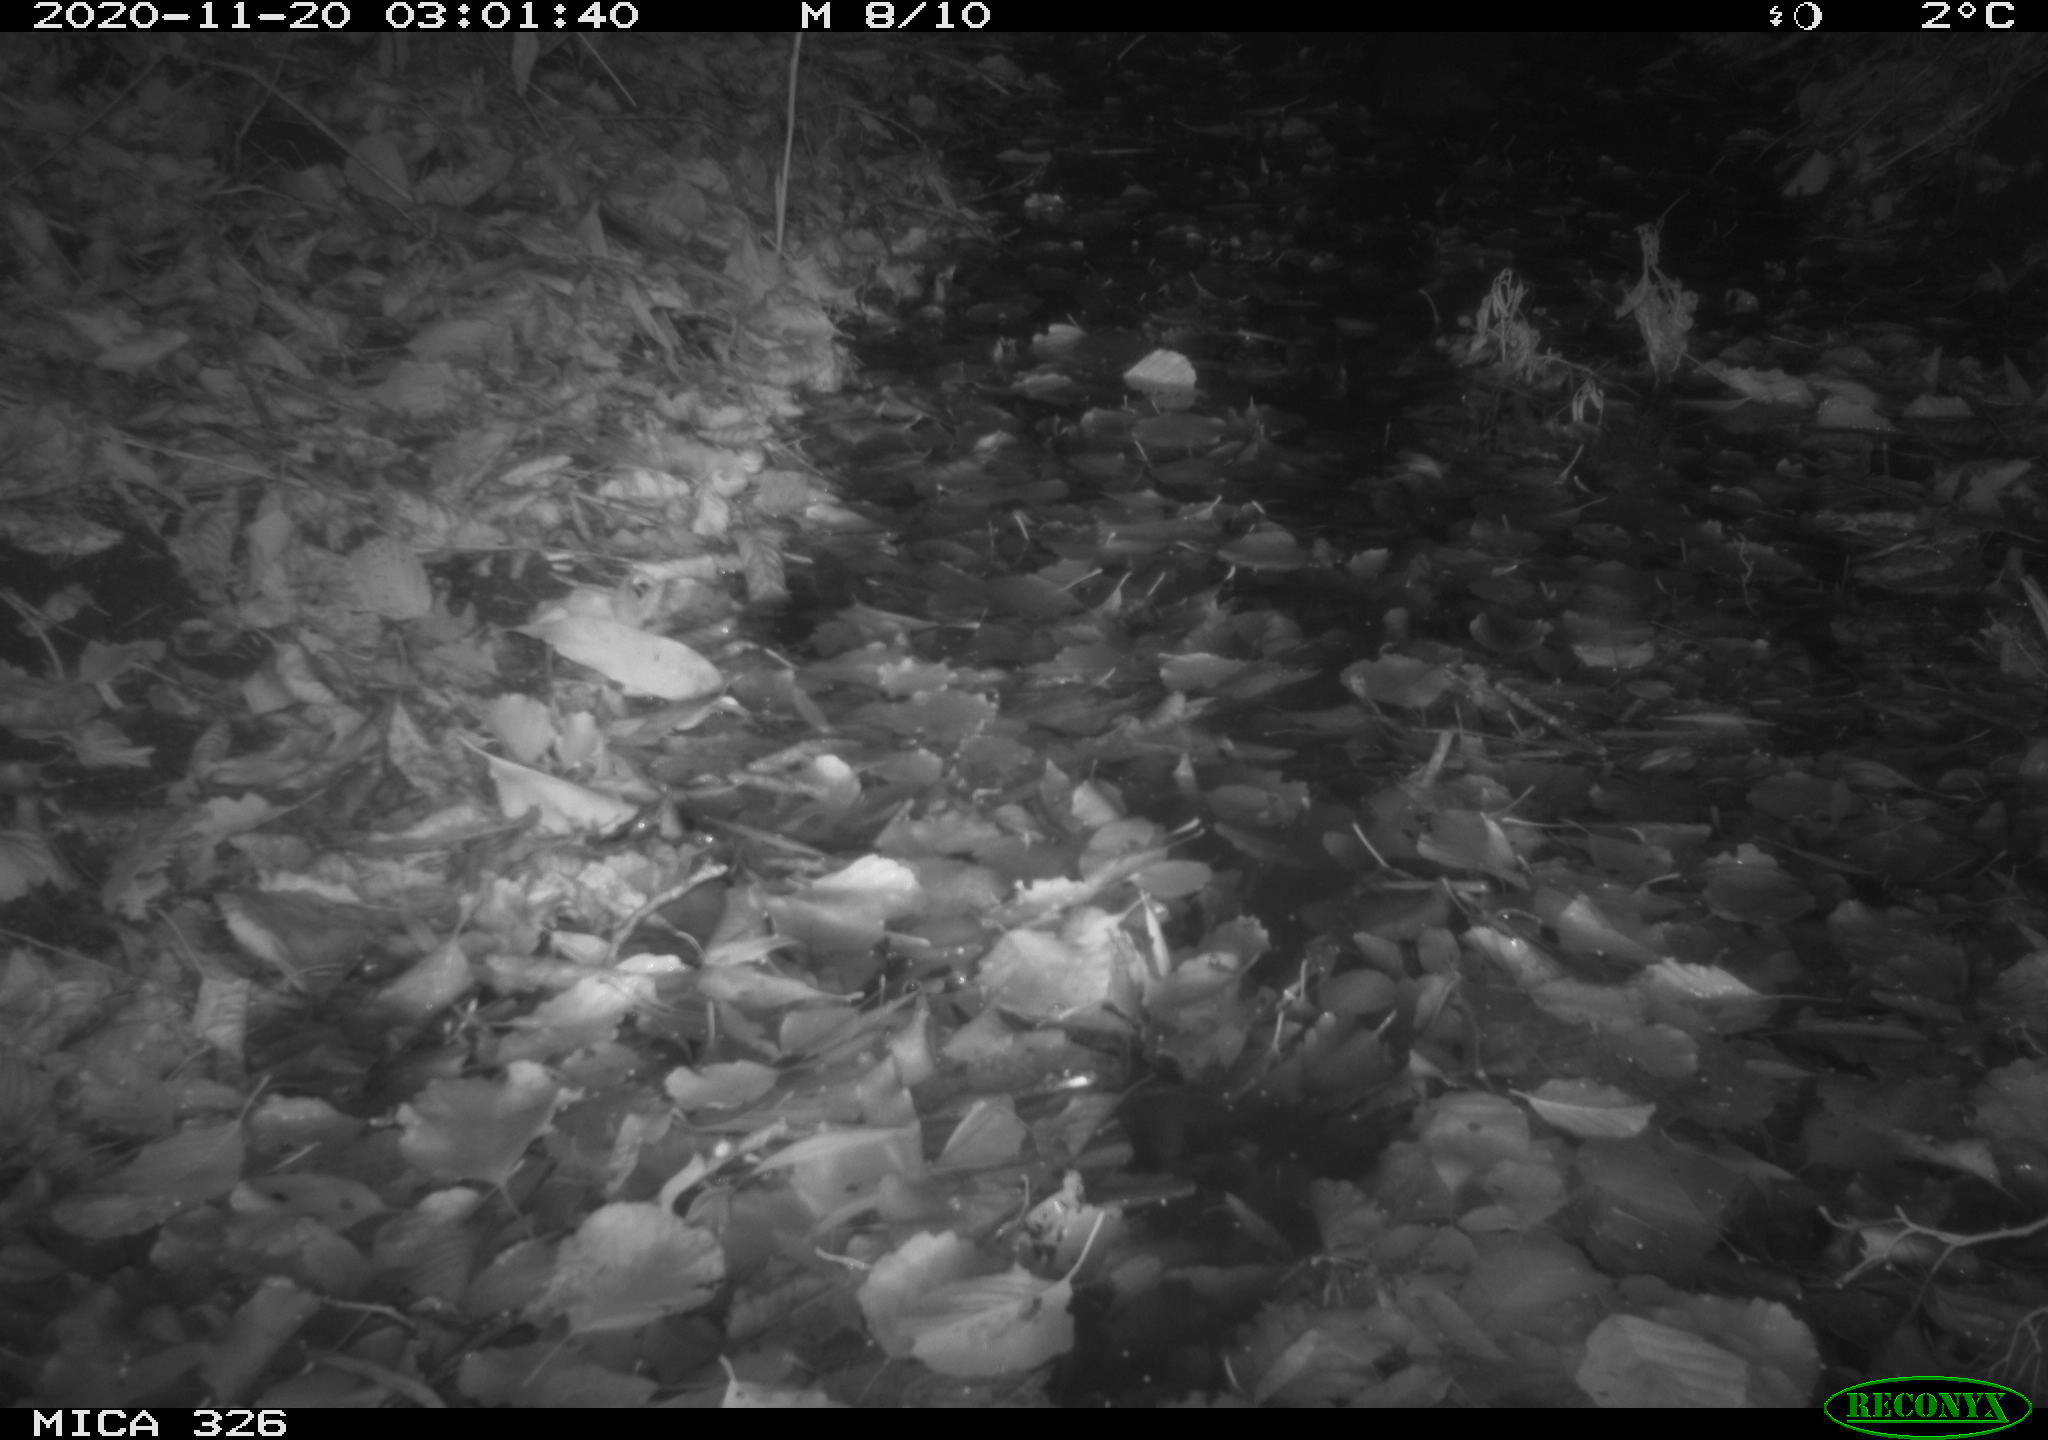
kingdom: Animalia
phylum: Chordata
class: Mammalia
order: Carnivora
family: Mustelidae
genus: Lutra
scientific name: Lutra lutra
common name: European otter
